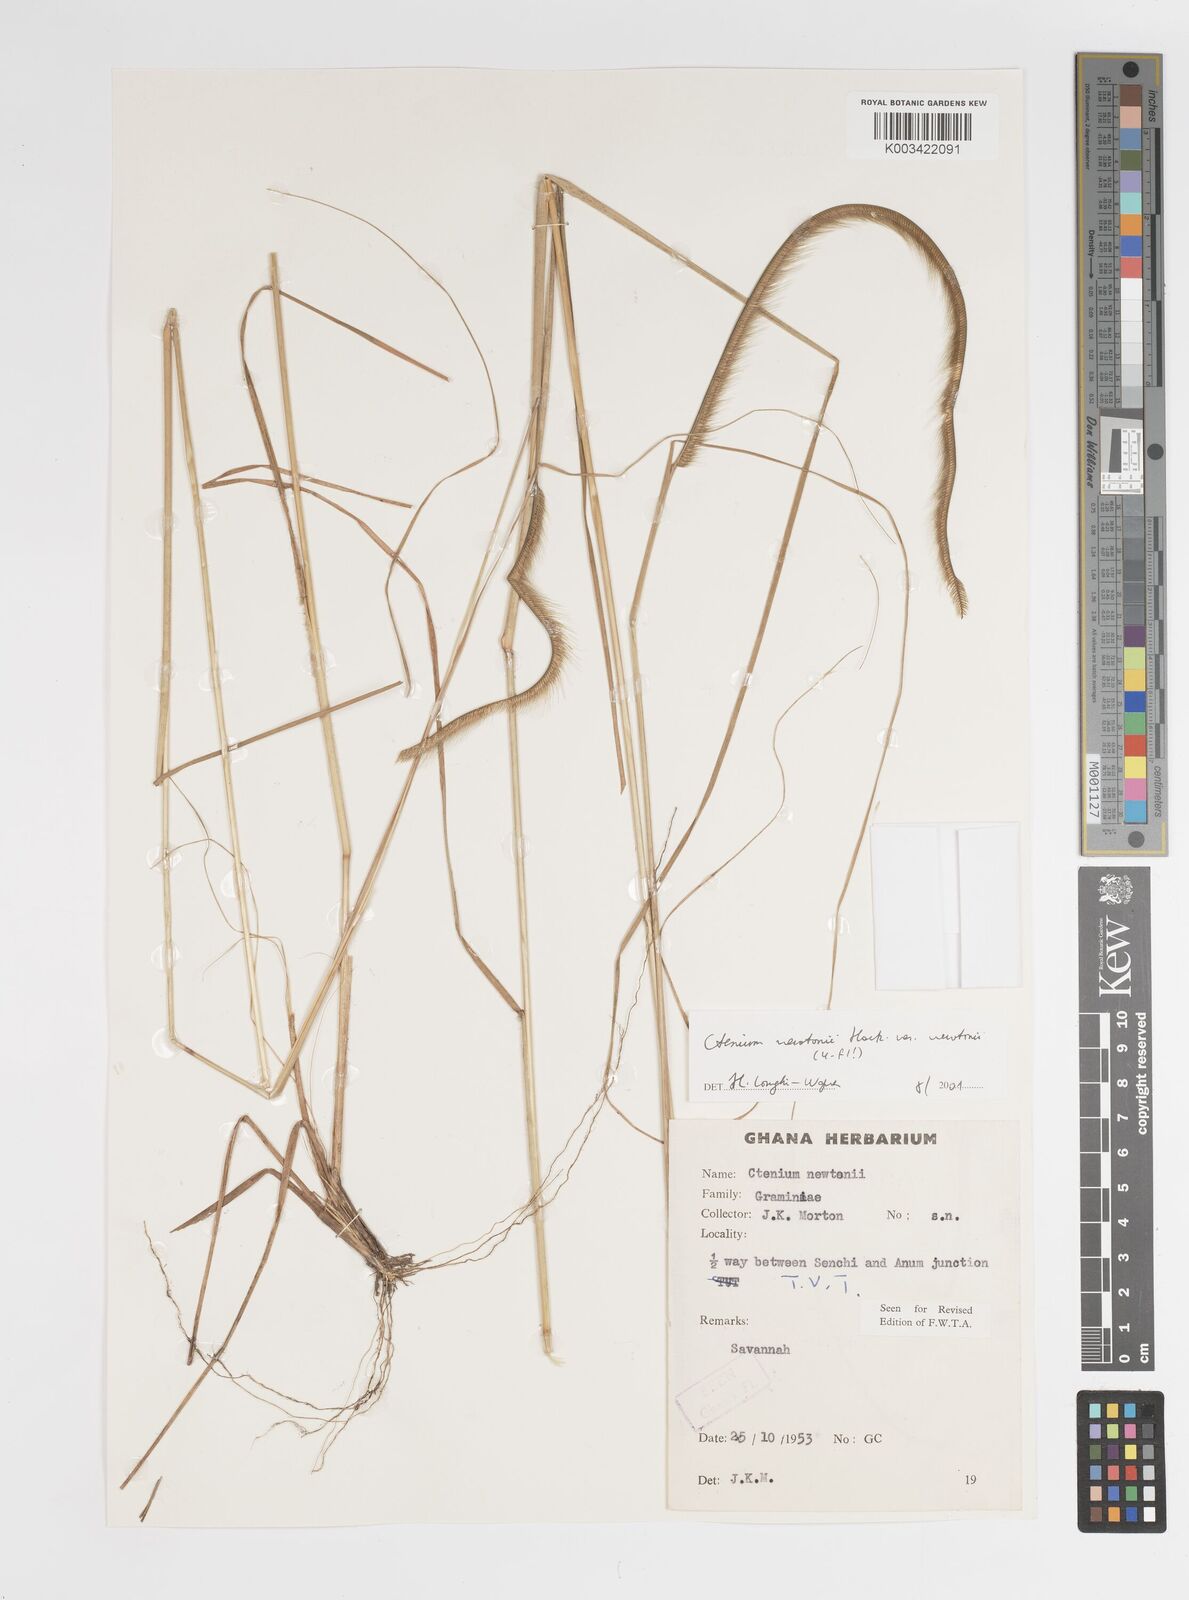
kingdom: Plantae
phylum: Tracheophyta
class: Liliopsida
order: Poales
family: Poaceae
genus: Ctenium
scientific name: Ctenium newtonii
